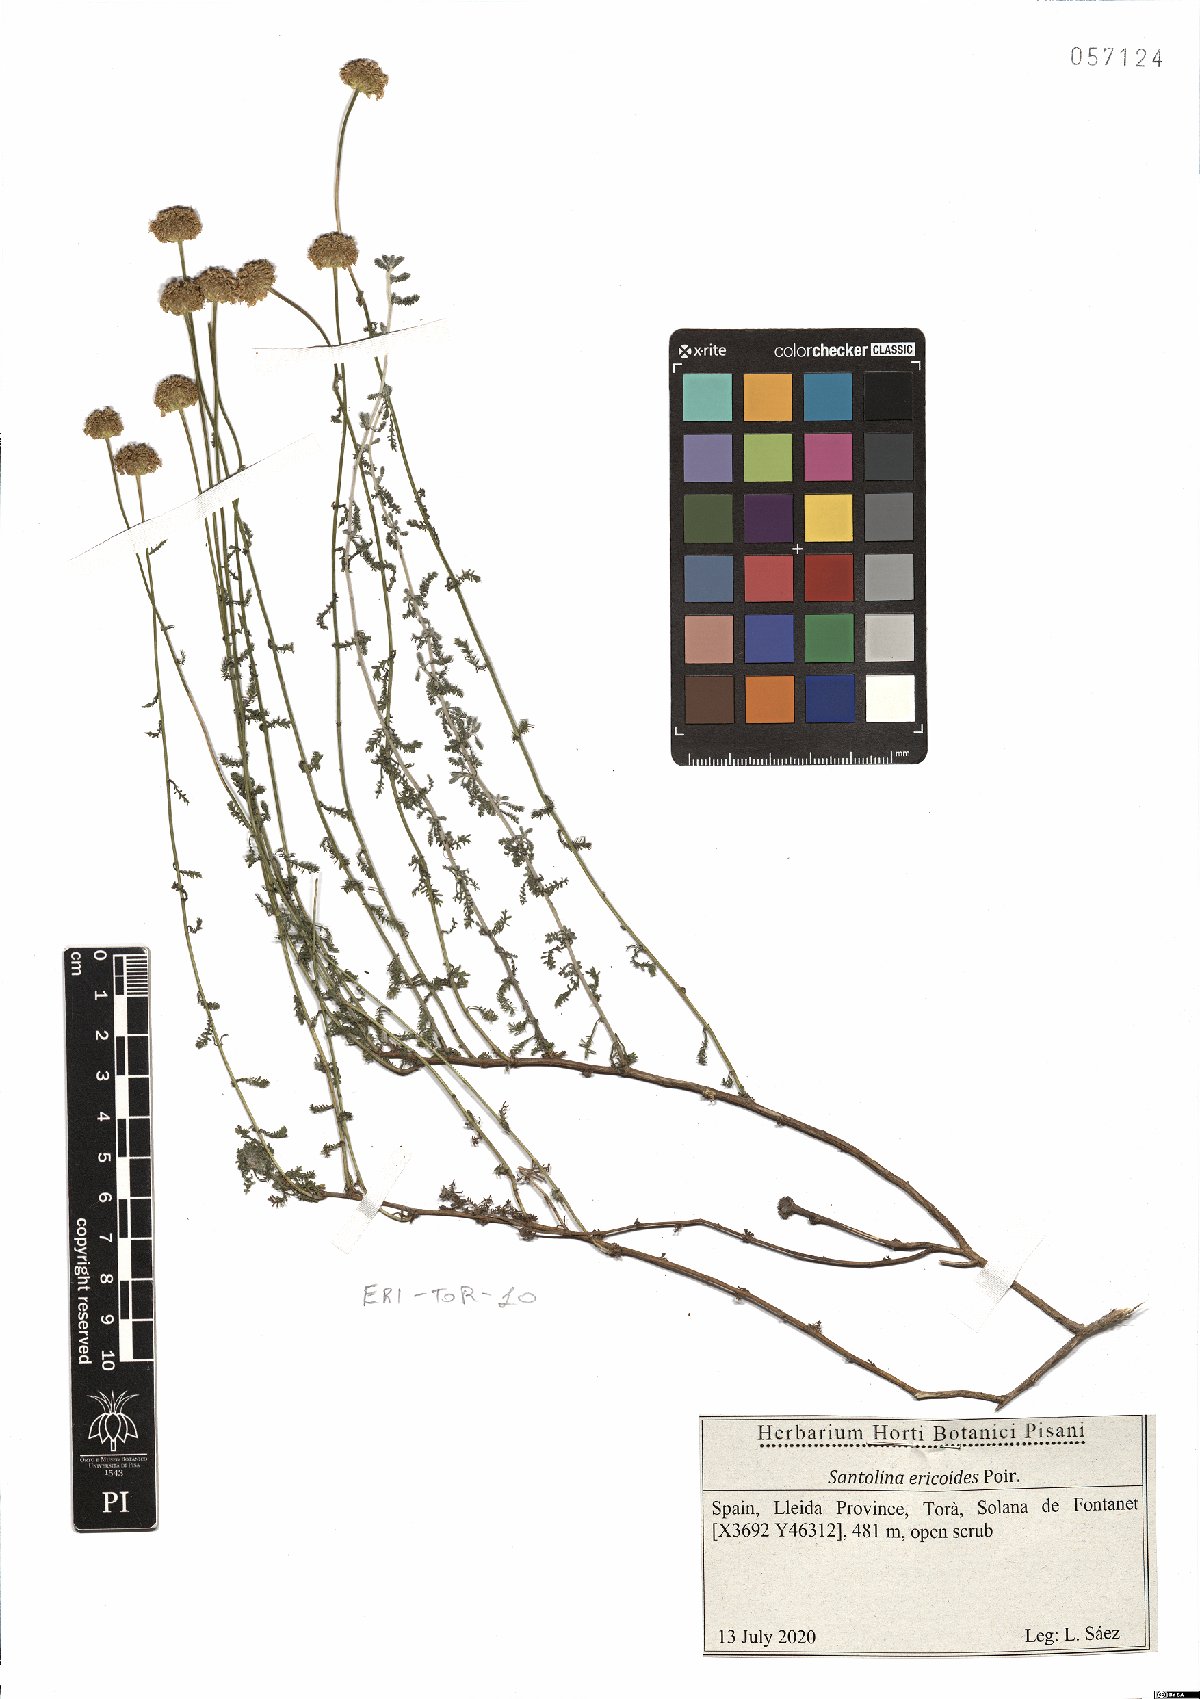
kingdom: Plantae
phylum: Tracheophyta
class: Magnoliopsida
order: Asterales
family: Asteraceae
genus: Santolina
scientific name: Santolina ericoides
